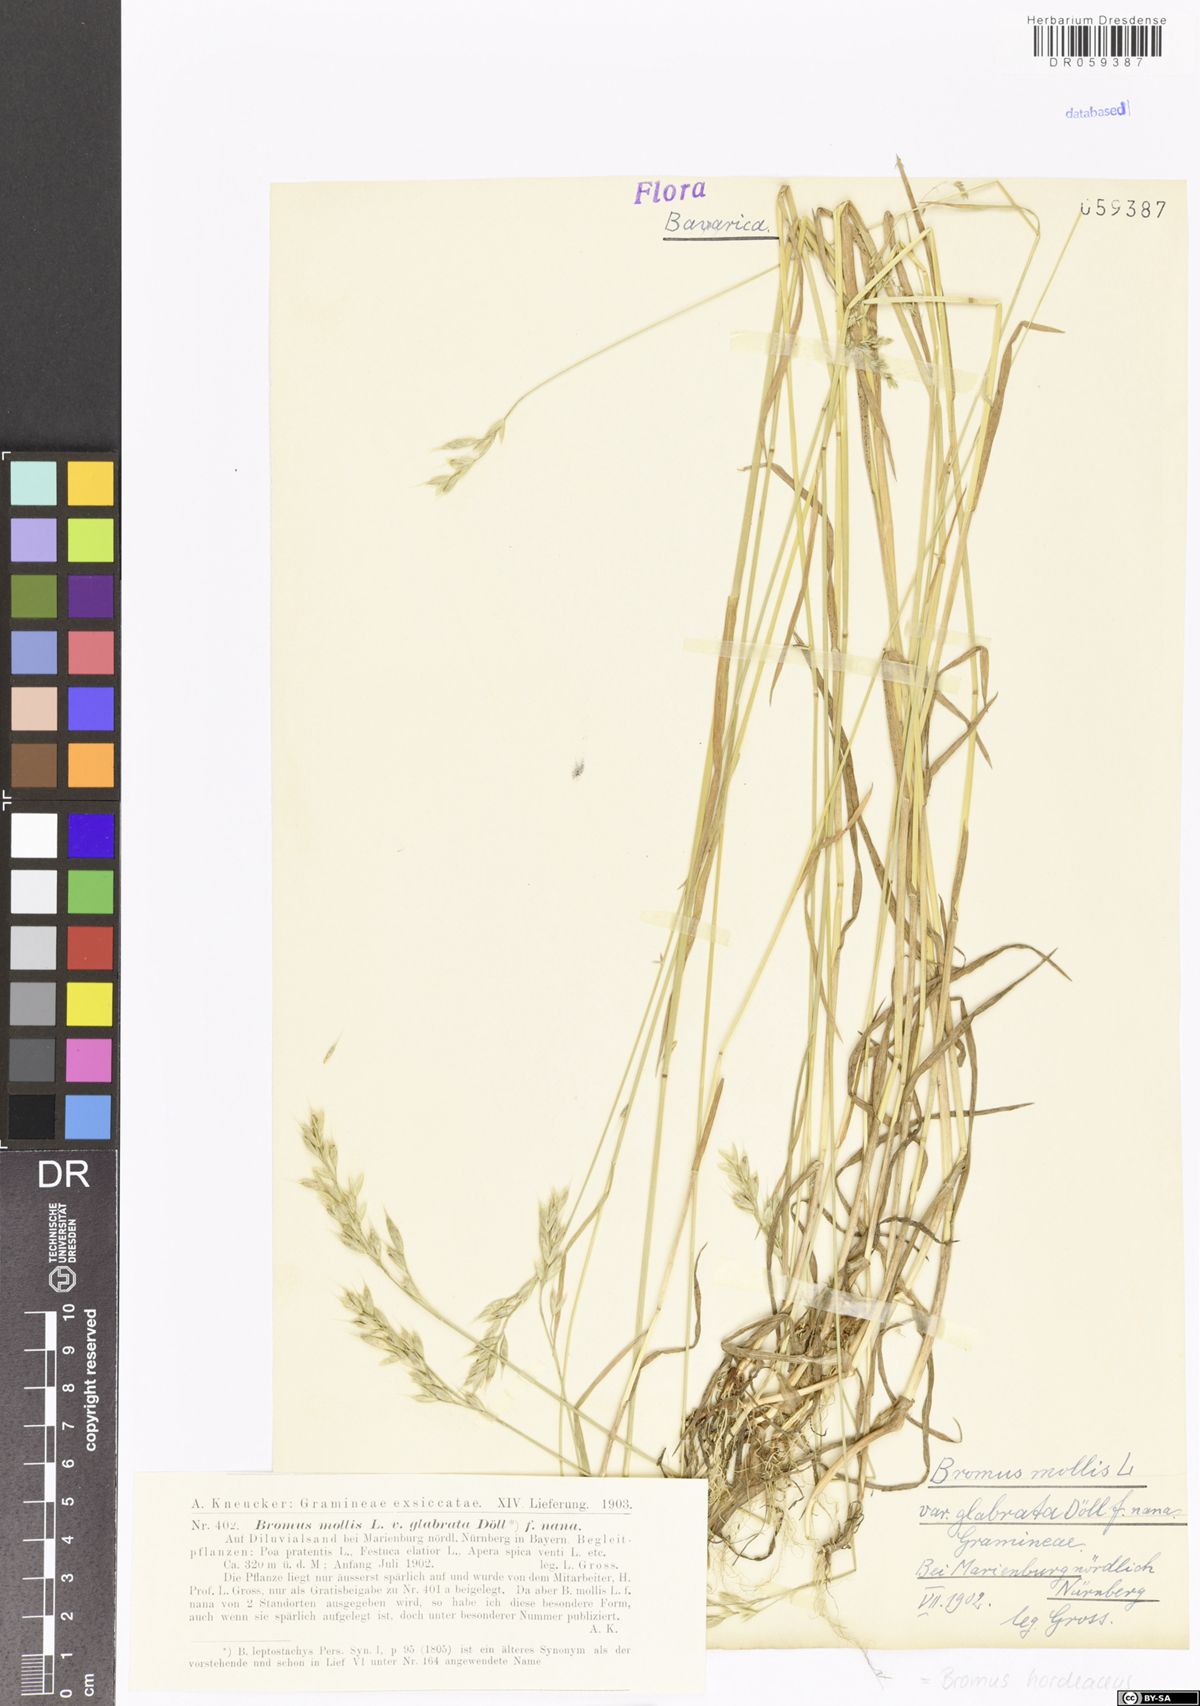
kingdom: Plantae
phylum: Tracheophyta
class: Liliopsida
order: Poales
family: Poaceae
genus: Bromus
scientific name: Bromus hordeaceus
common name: Soft brome
